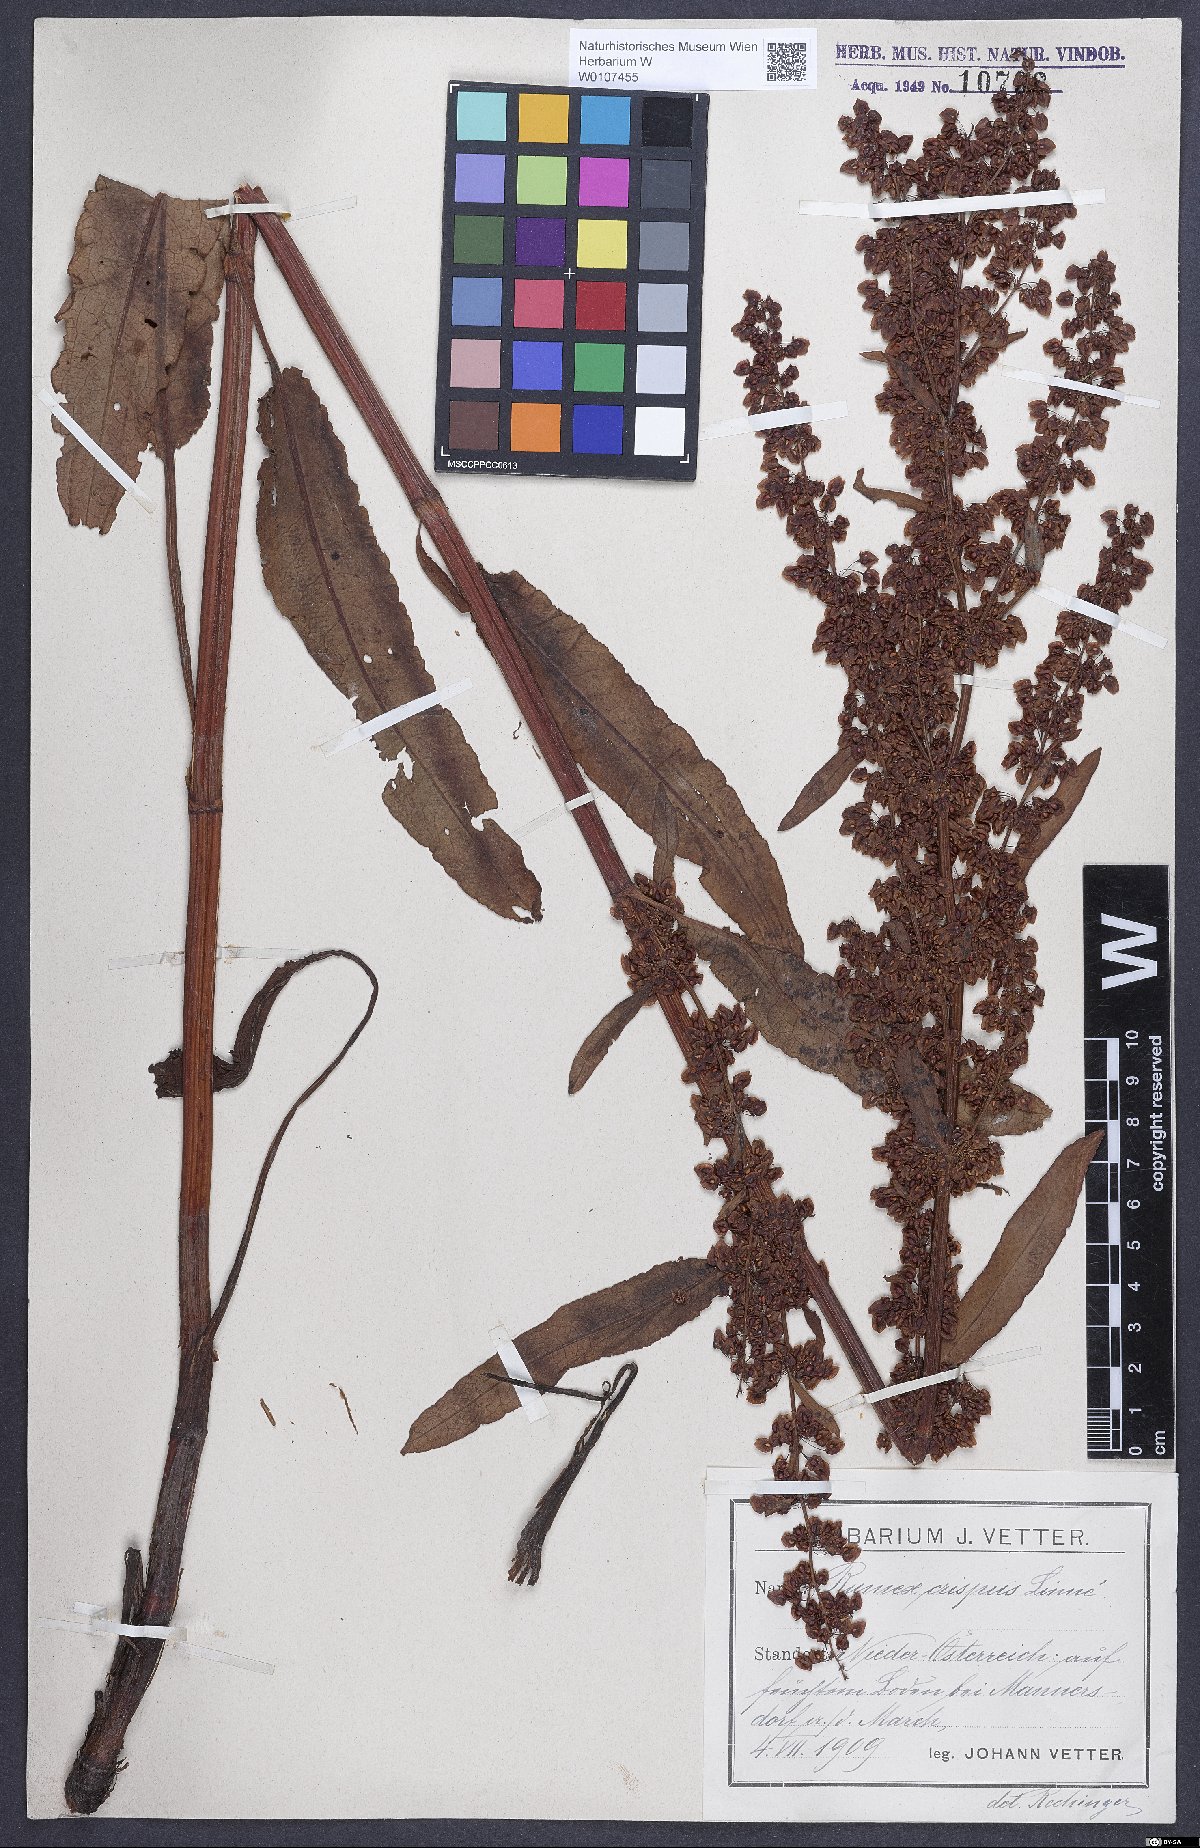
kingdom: Plantae
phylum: Tracheophyta
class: Magnoliopsida
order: Caryophyllales
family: Polygonaceae
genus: Rumex
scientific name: Rumex crispus
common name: Curled dock
